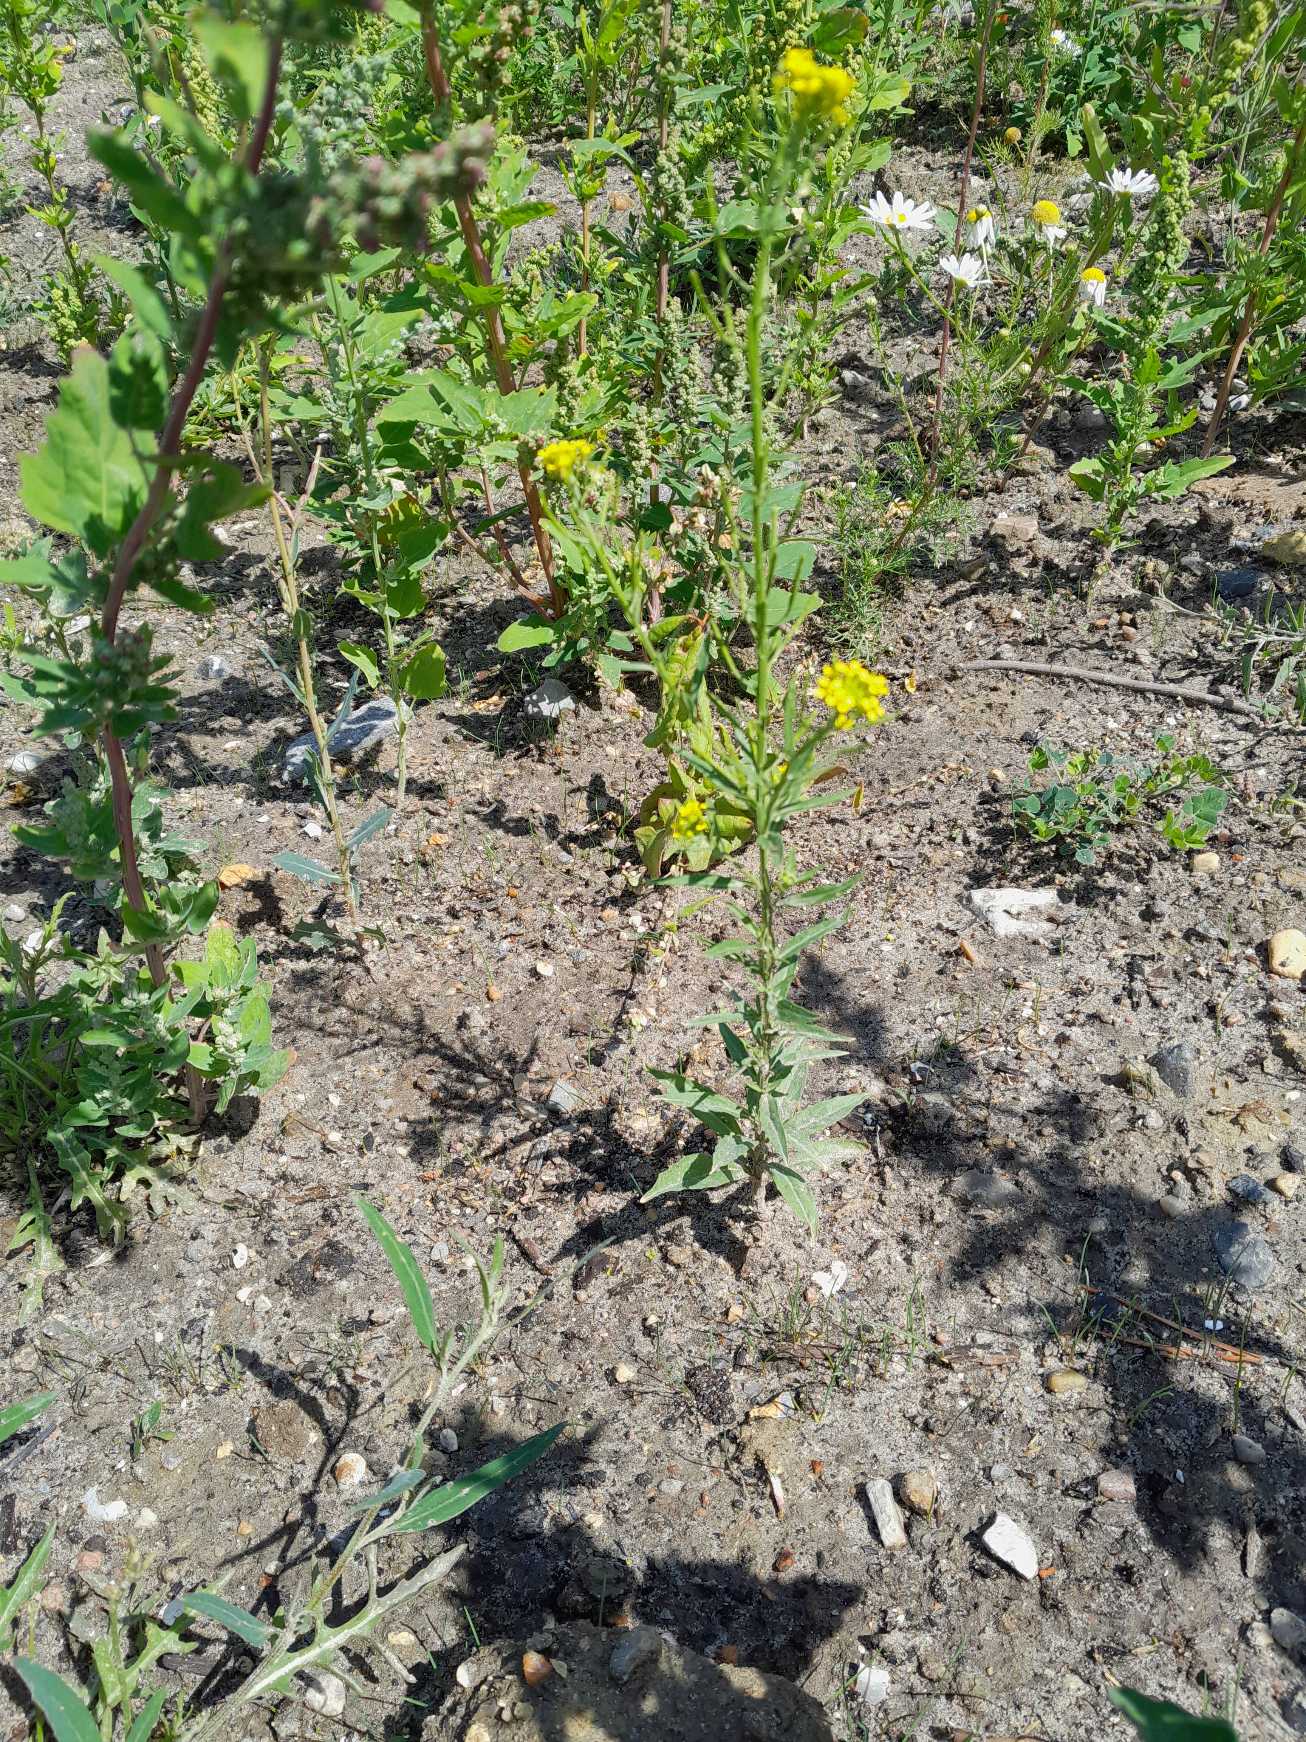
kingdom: Plantae
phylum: Tracheophyta
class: Magnoliopsida
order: Brassicales
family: Brassicaceae
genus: Erysimum
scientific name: Erysimum cheiranthoides
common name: Gyldenlak-hjørneklap
